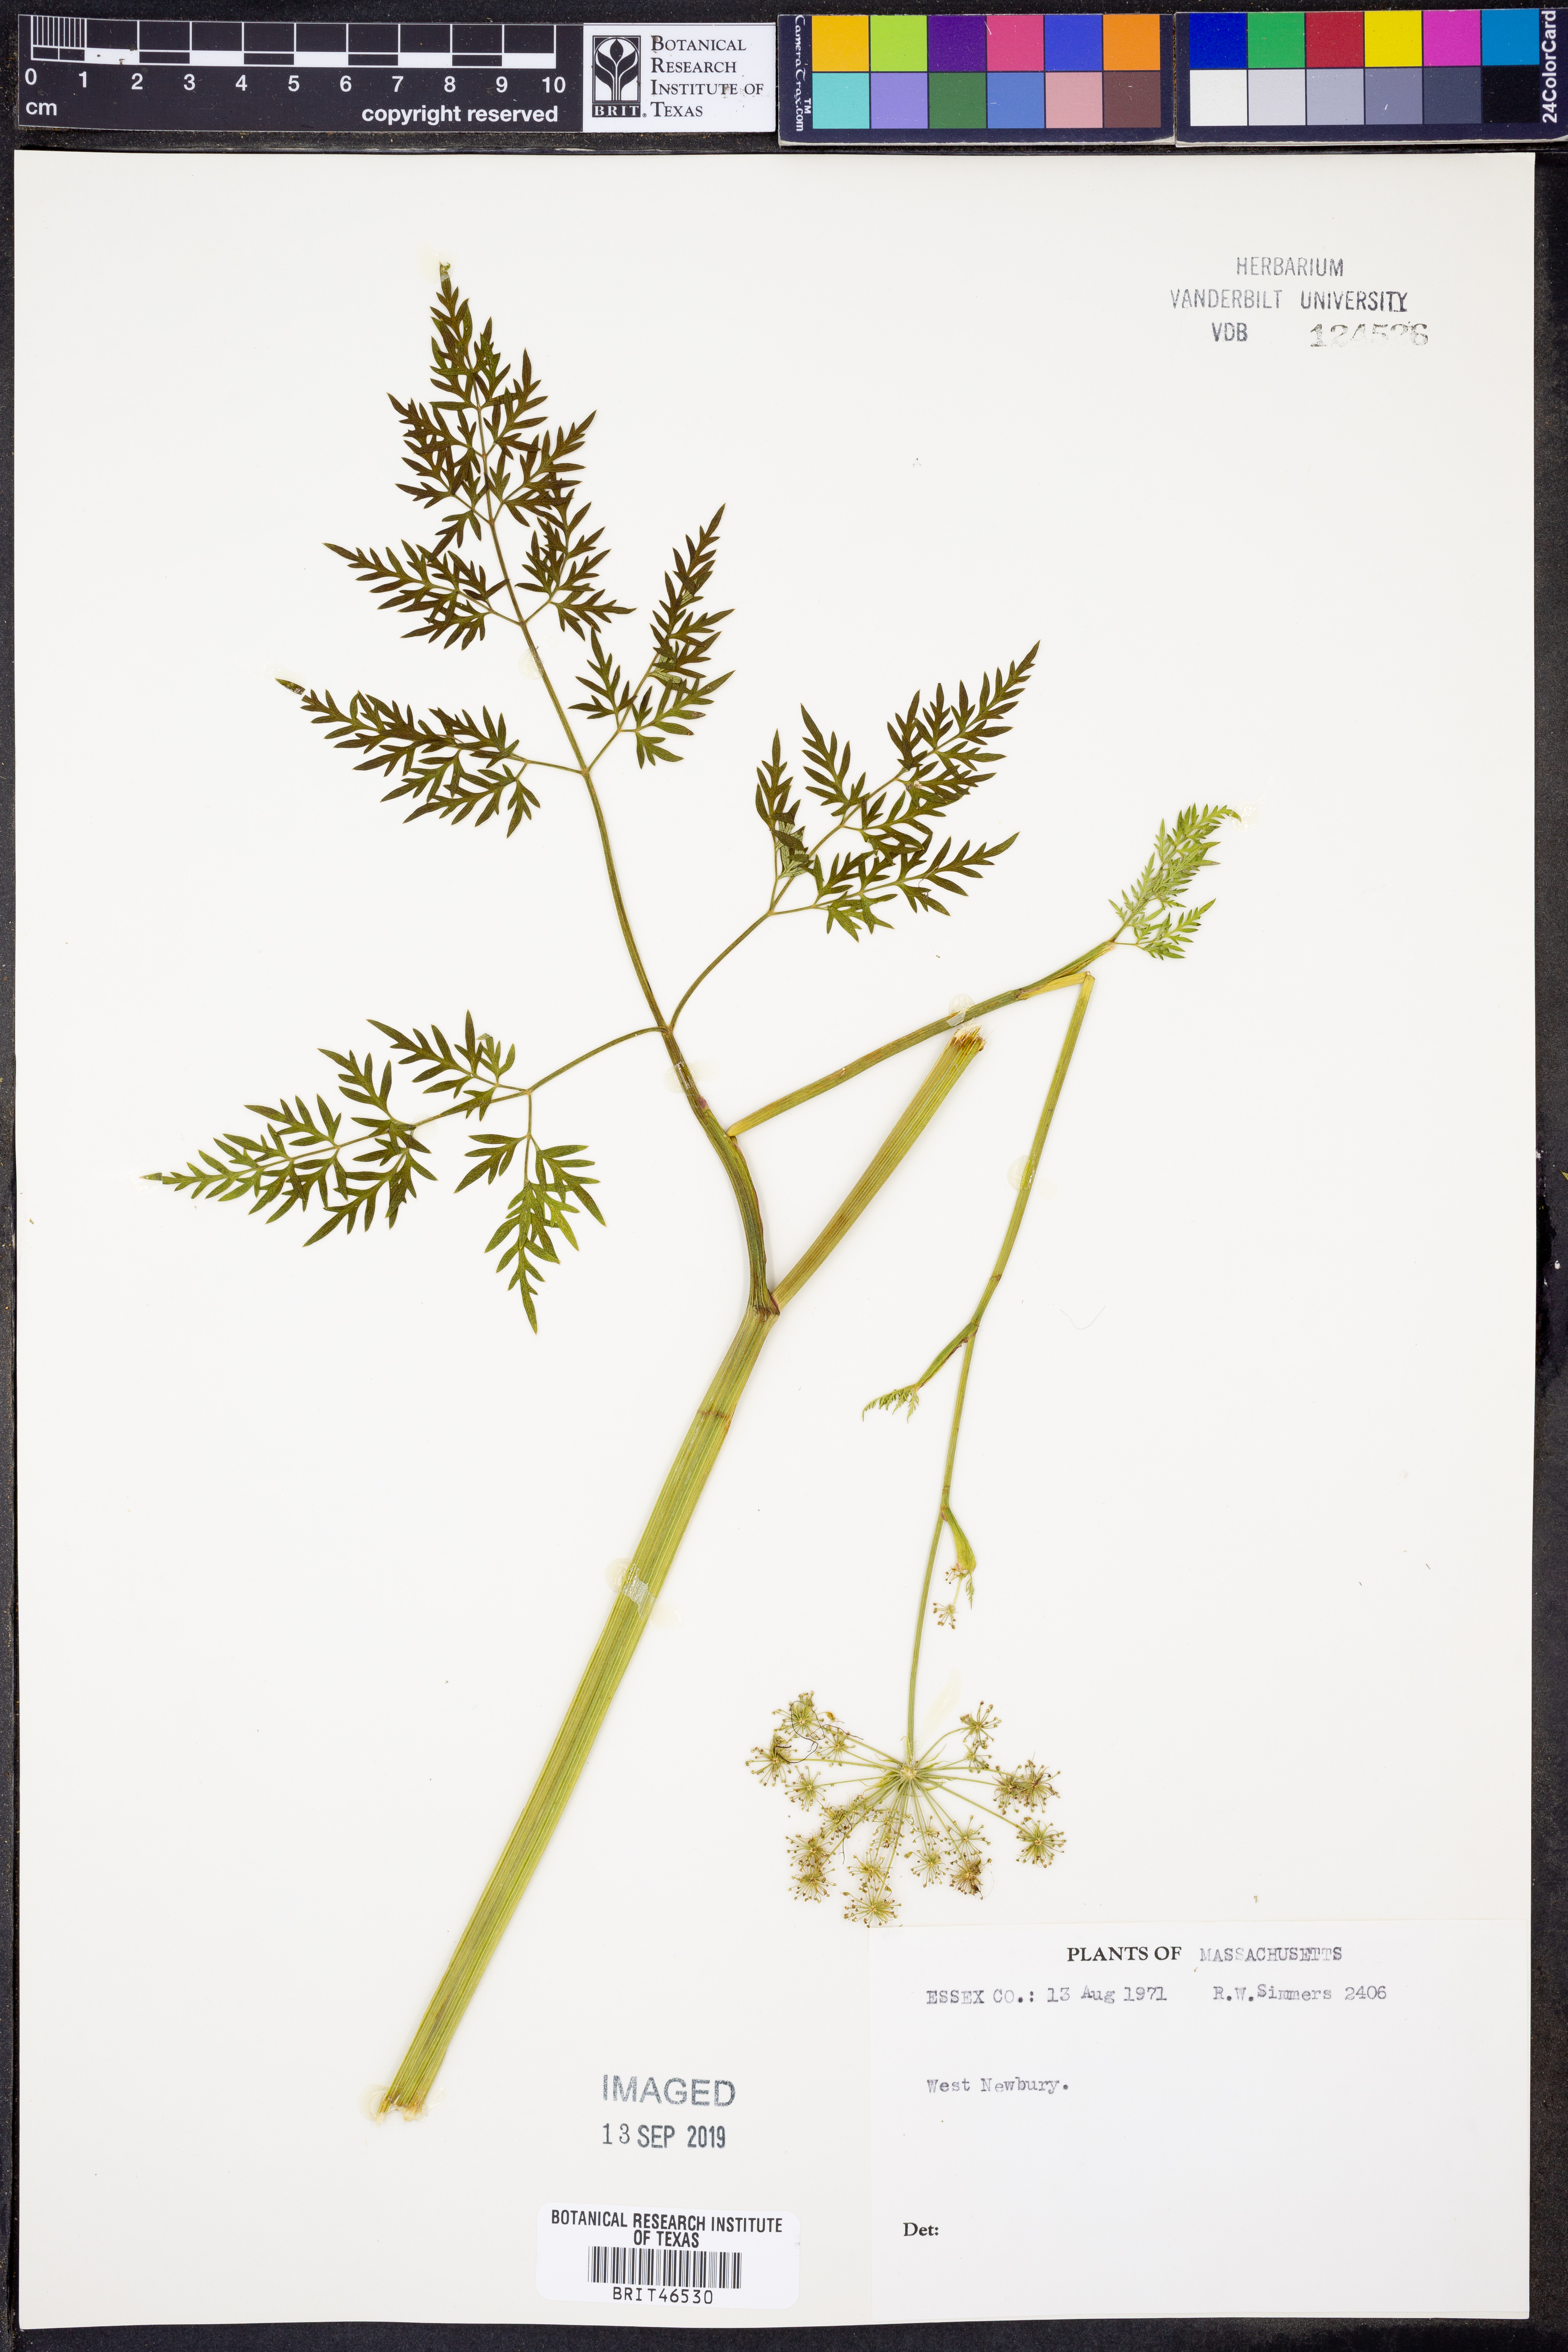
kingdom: Plantae
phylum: Tracheophyta
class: Magnoliopsida
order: Apiales
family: Apiaceae
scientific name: Apiaceae
